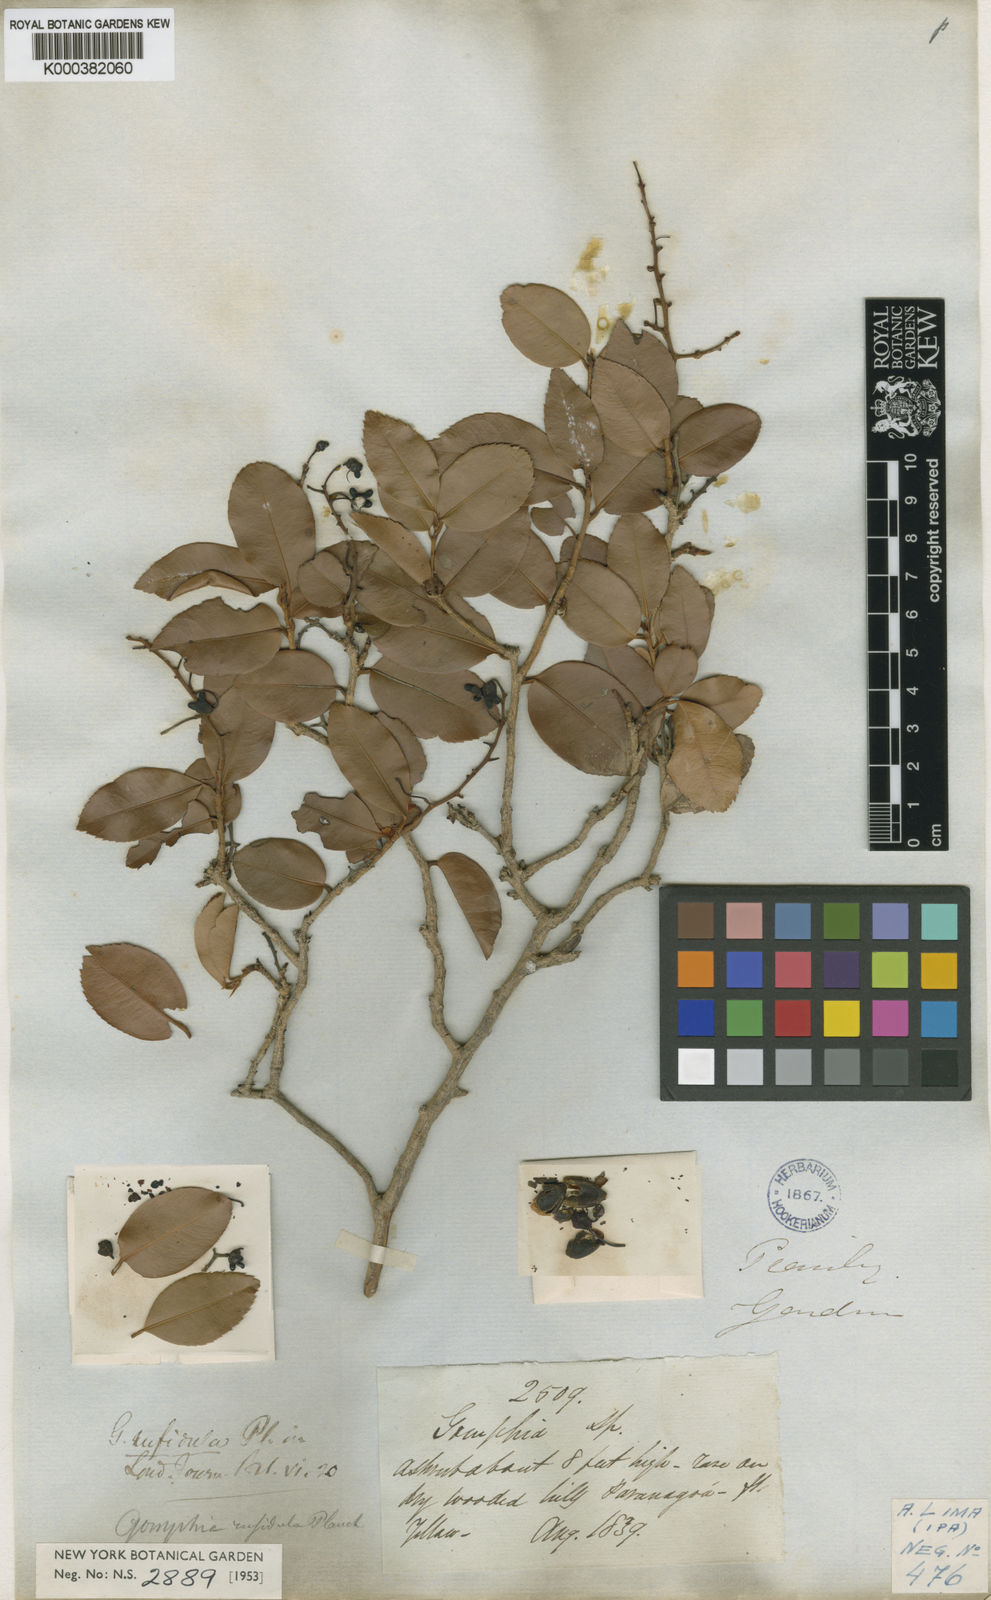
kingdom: Plantae
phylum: Tracheophyta
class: Magnoliopsida
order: Malpighiales
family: Ochnaceae
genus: Ouratea
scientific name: Ouratea blanchetiana
